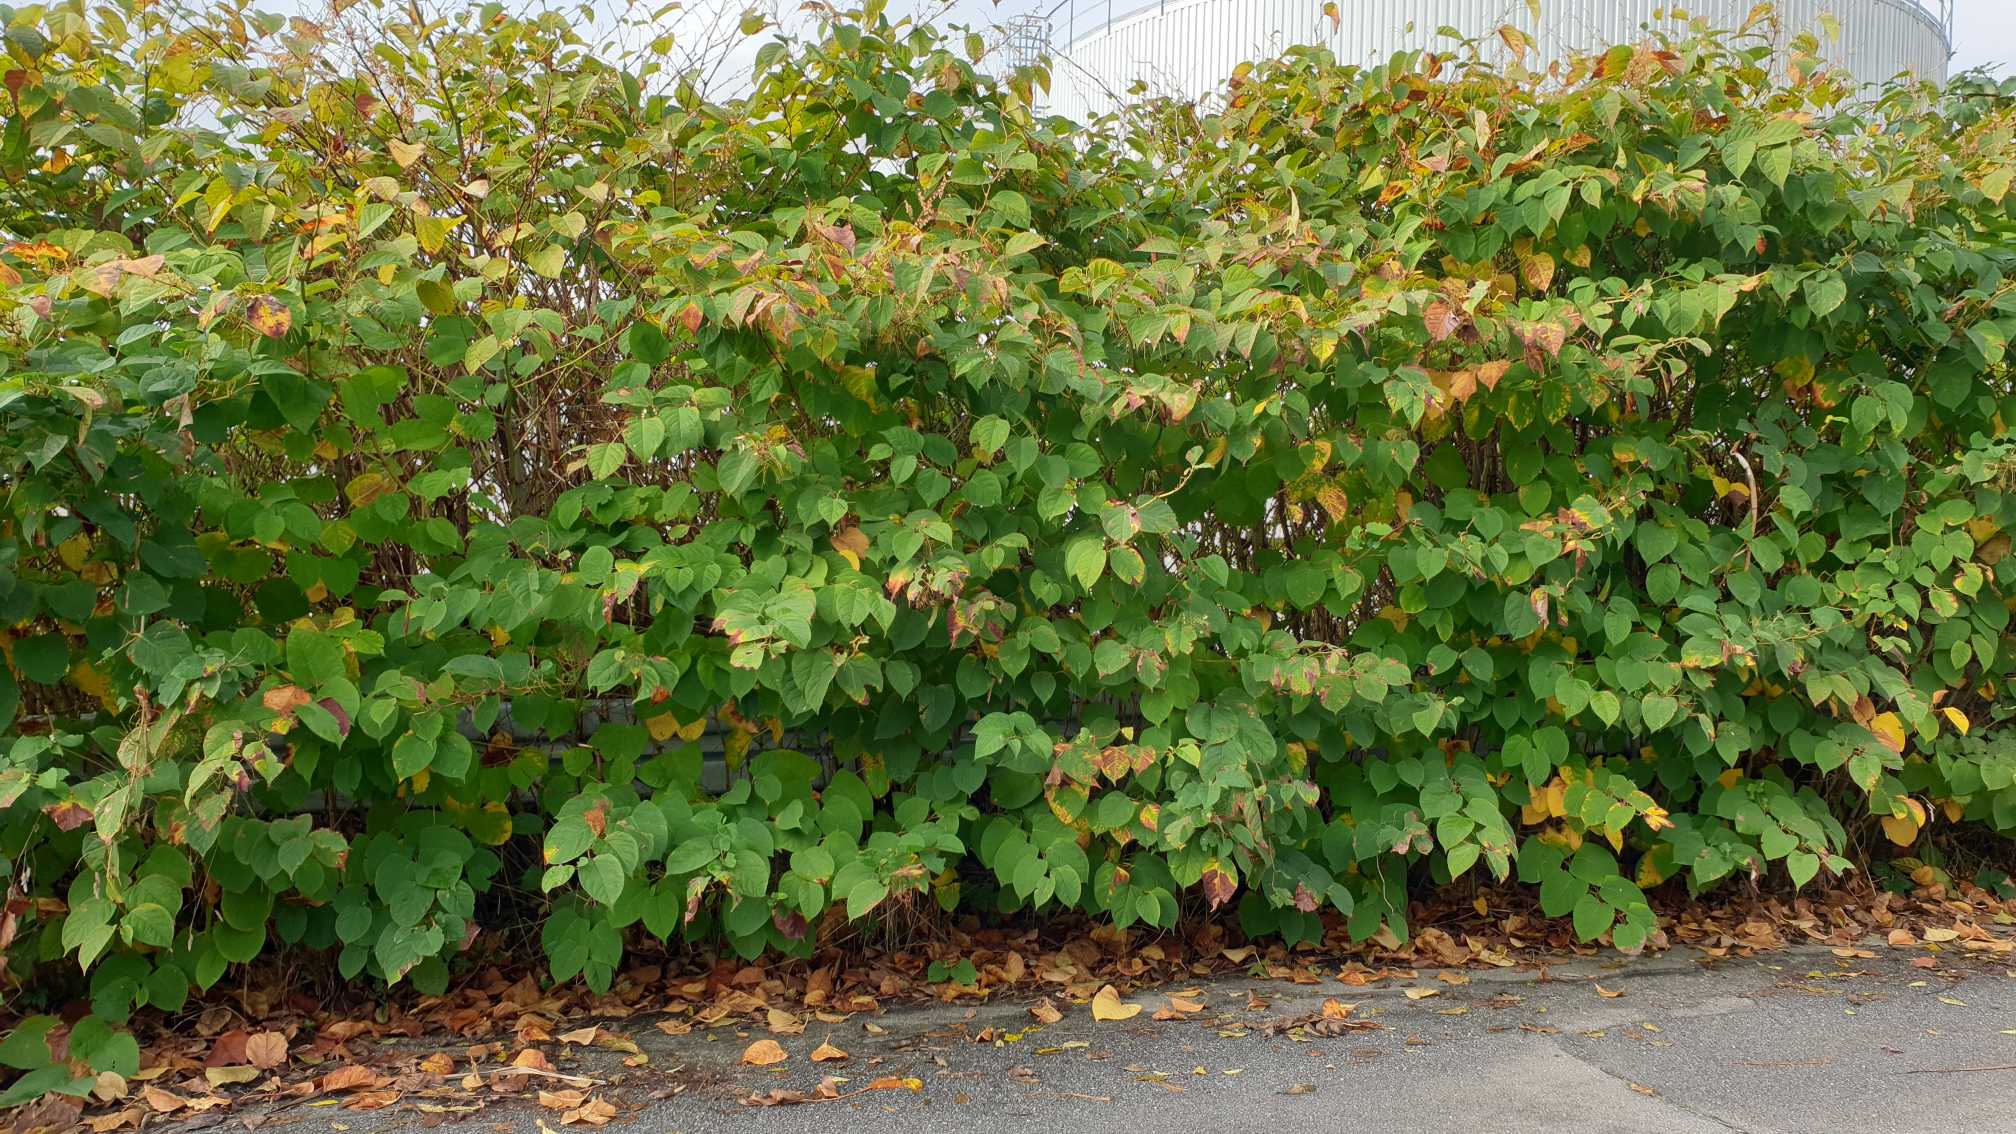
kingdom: Plantae
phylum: Tracheophyta
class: Magnoliopsida
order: Caryophyllales
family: Polygonaceae
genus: Reynoutria
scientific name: Reynoutria japonica
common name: Japan-pileurt
